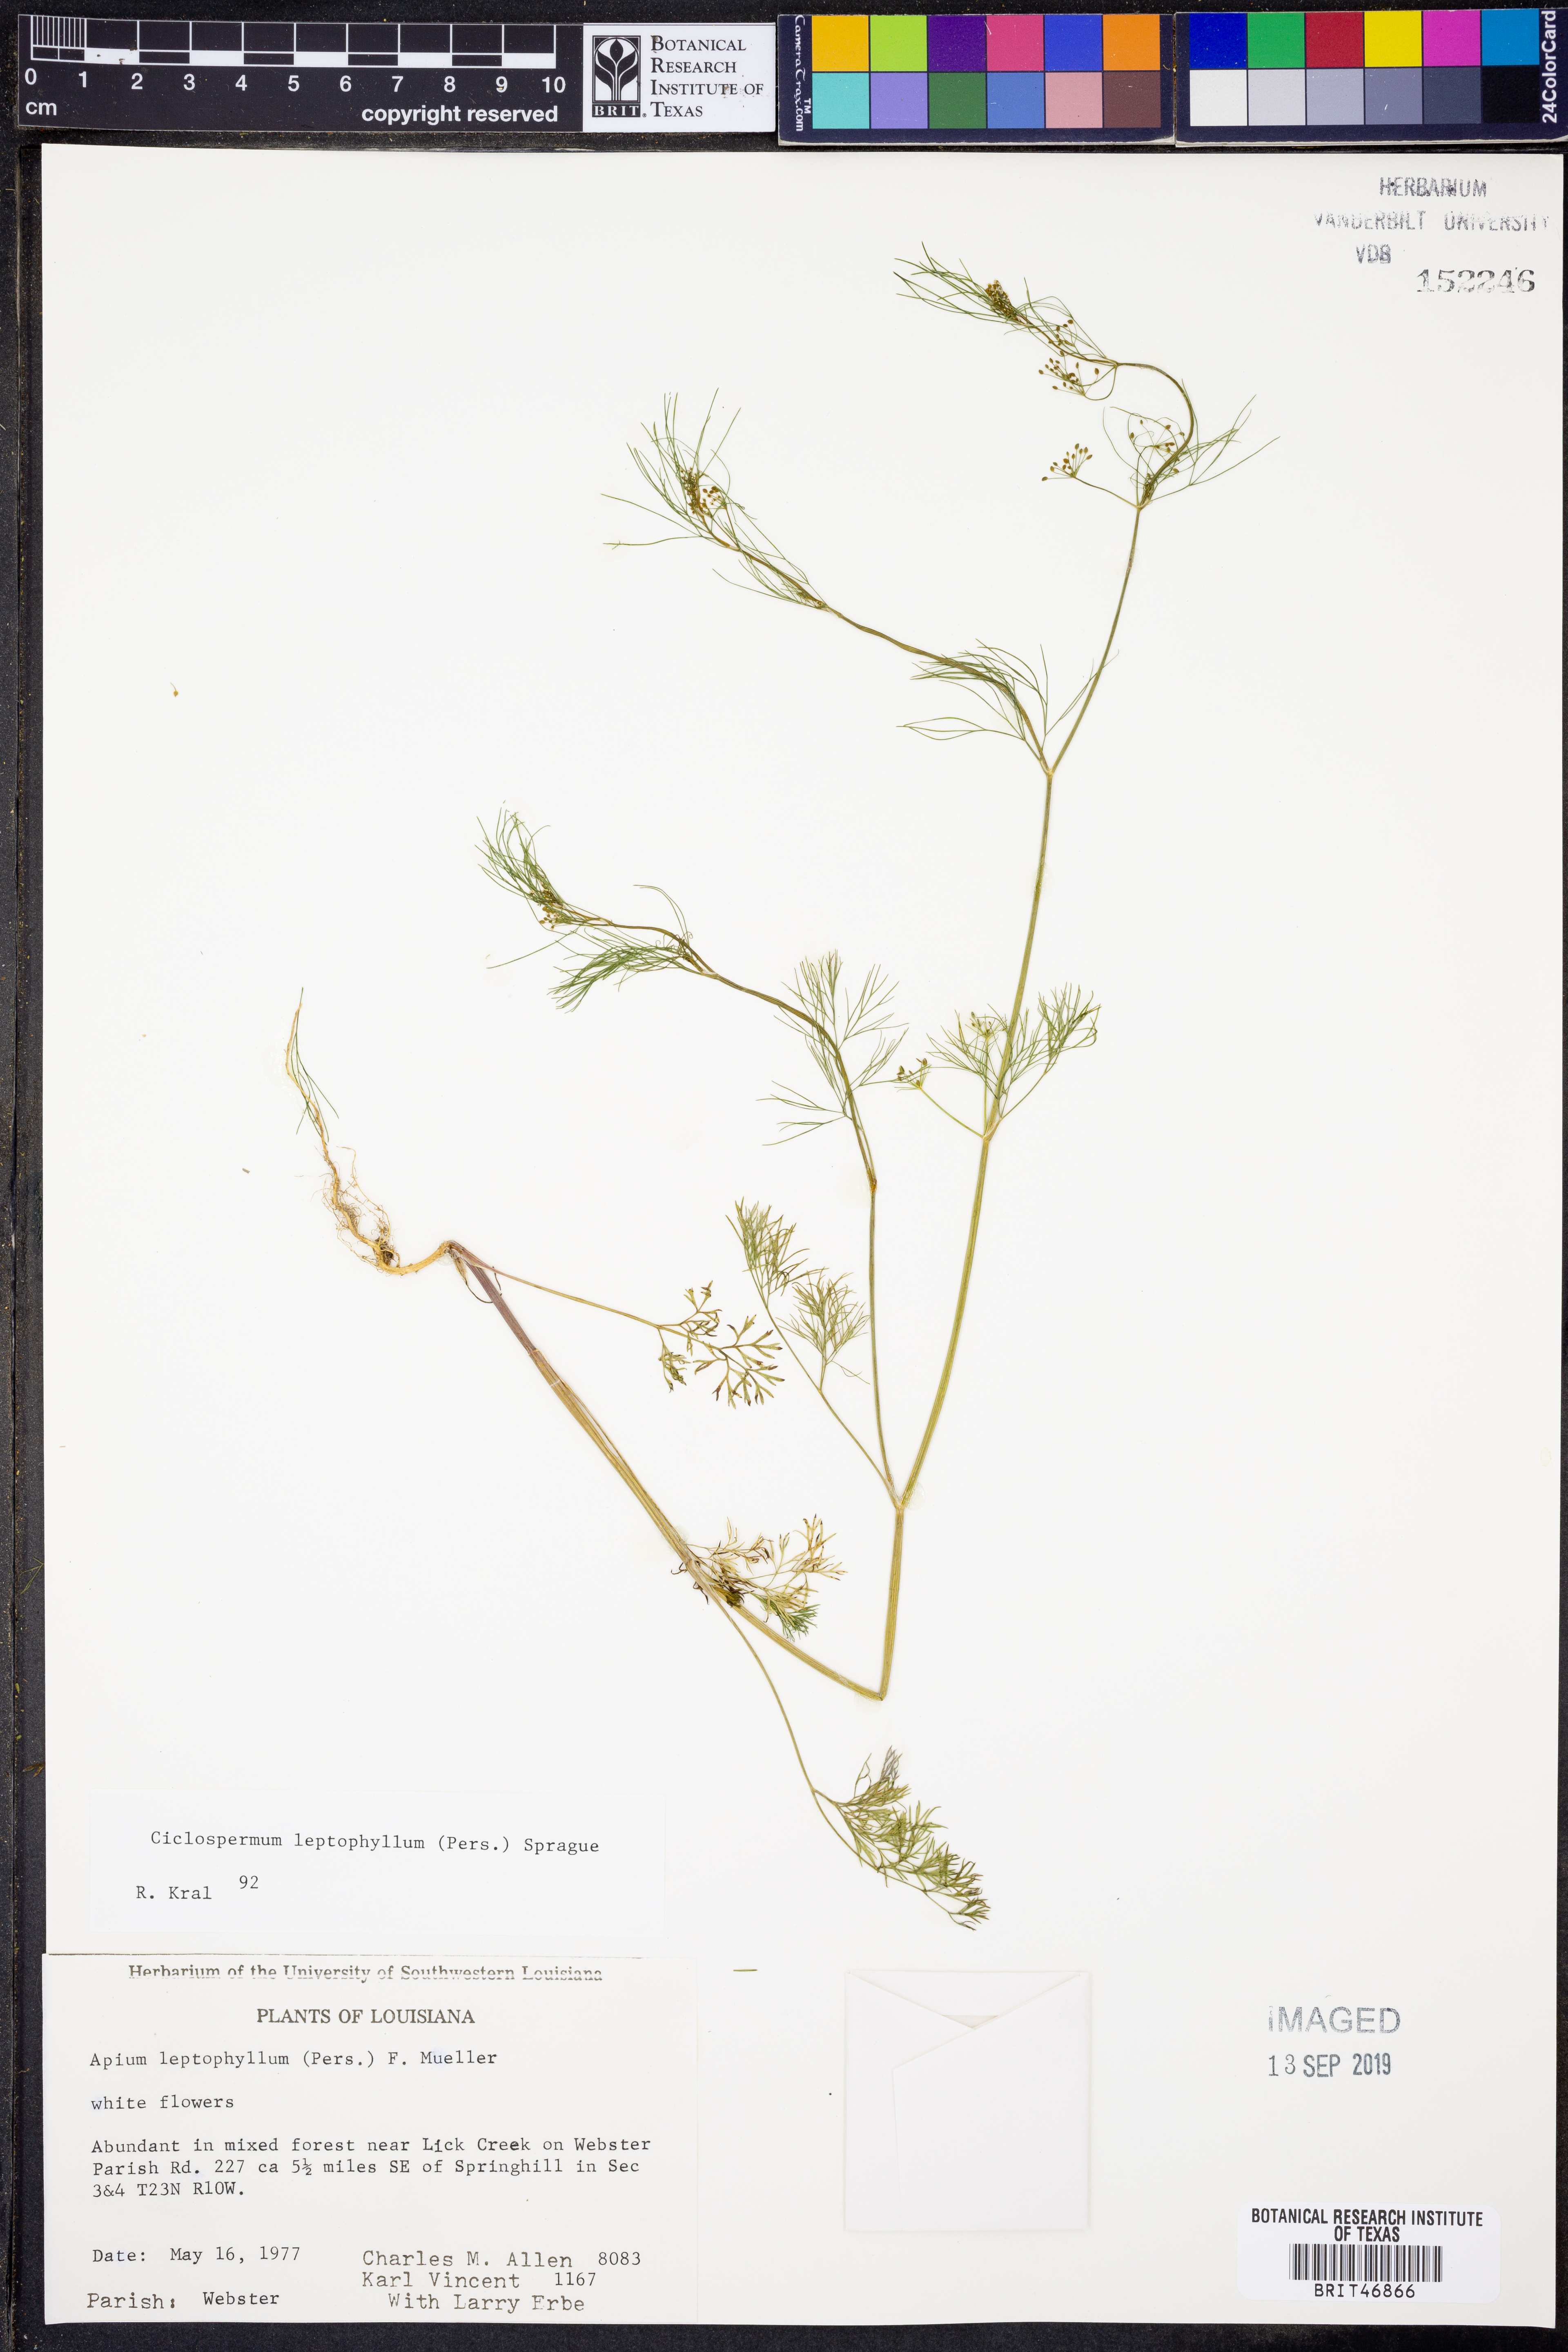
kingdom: Plantae
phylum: Tracheophyta
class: Magnoliopsida
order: Apiales
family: Apiaceae
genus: Cyclospermum
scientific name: Cyclospermum leptophyllum
